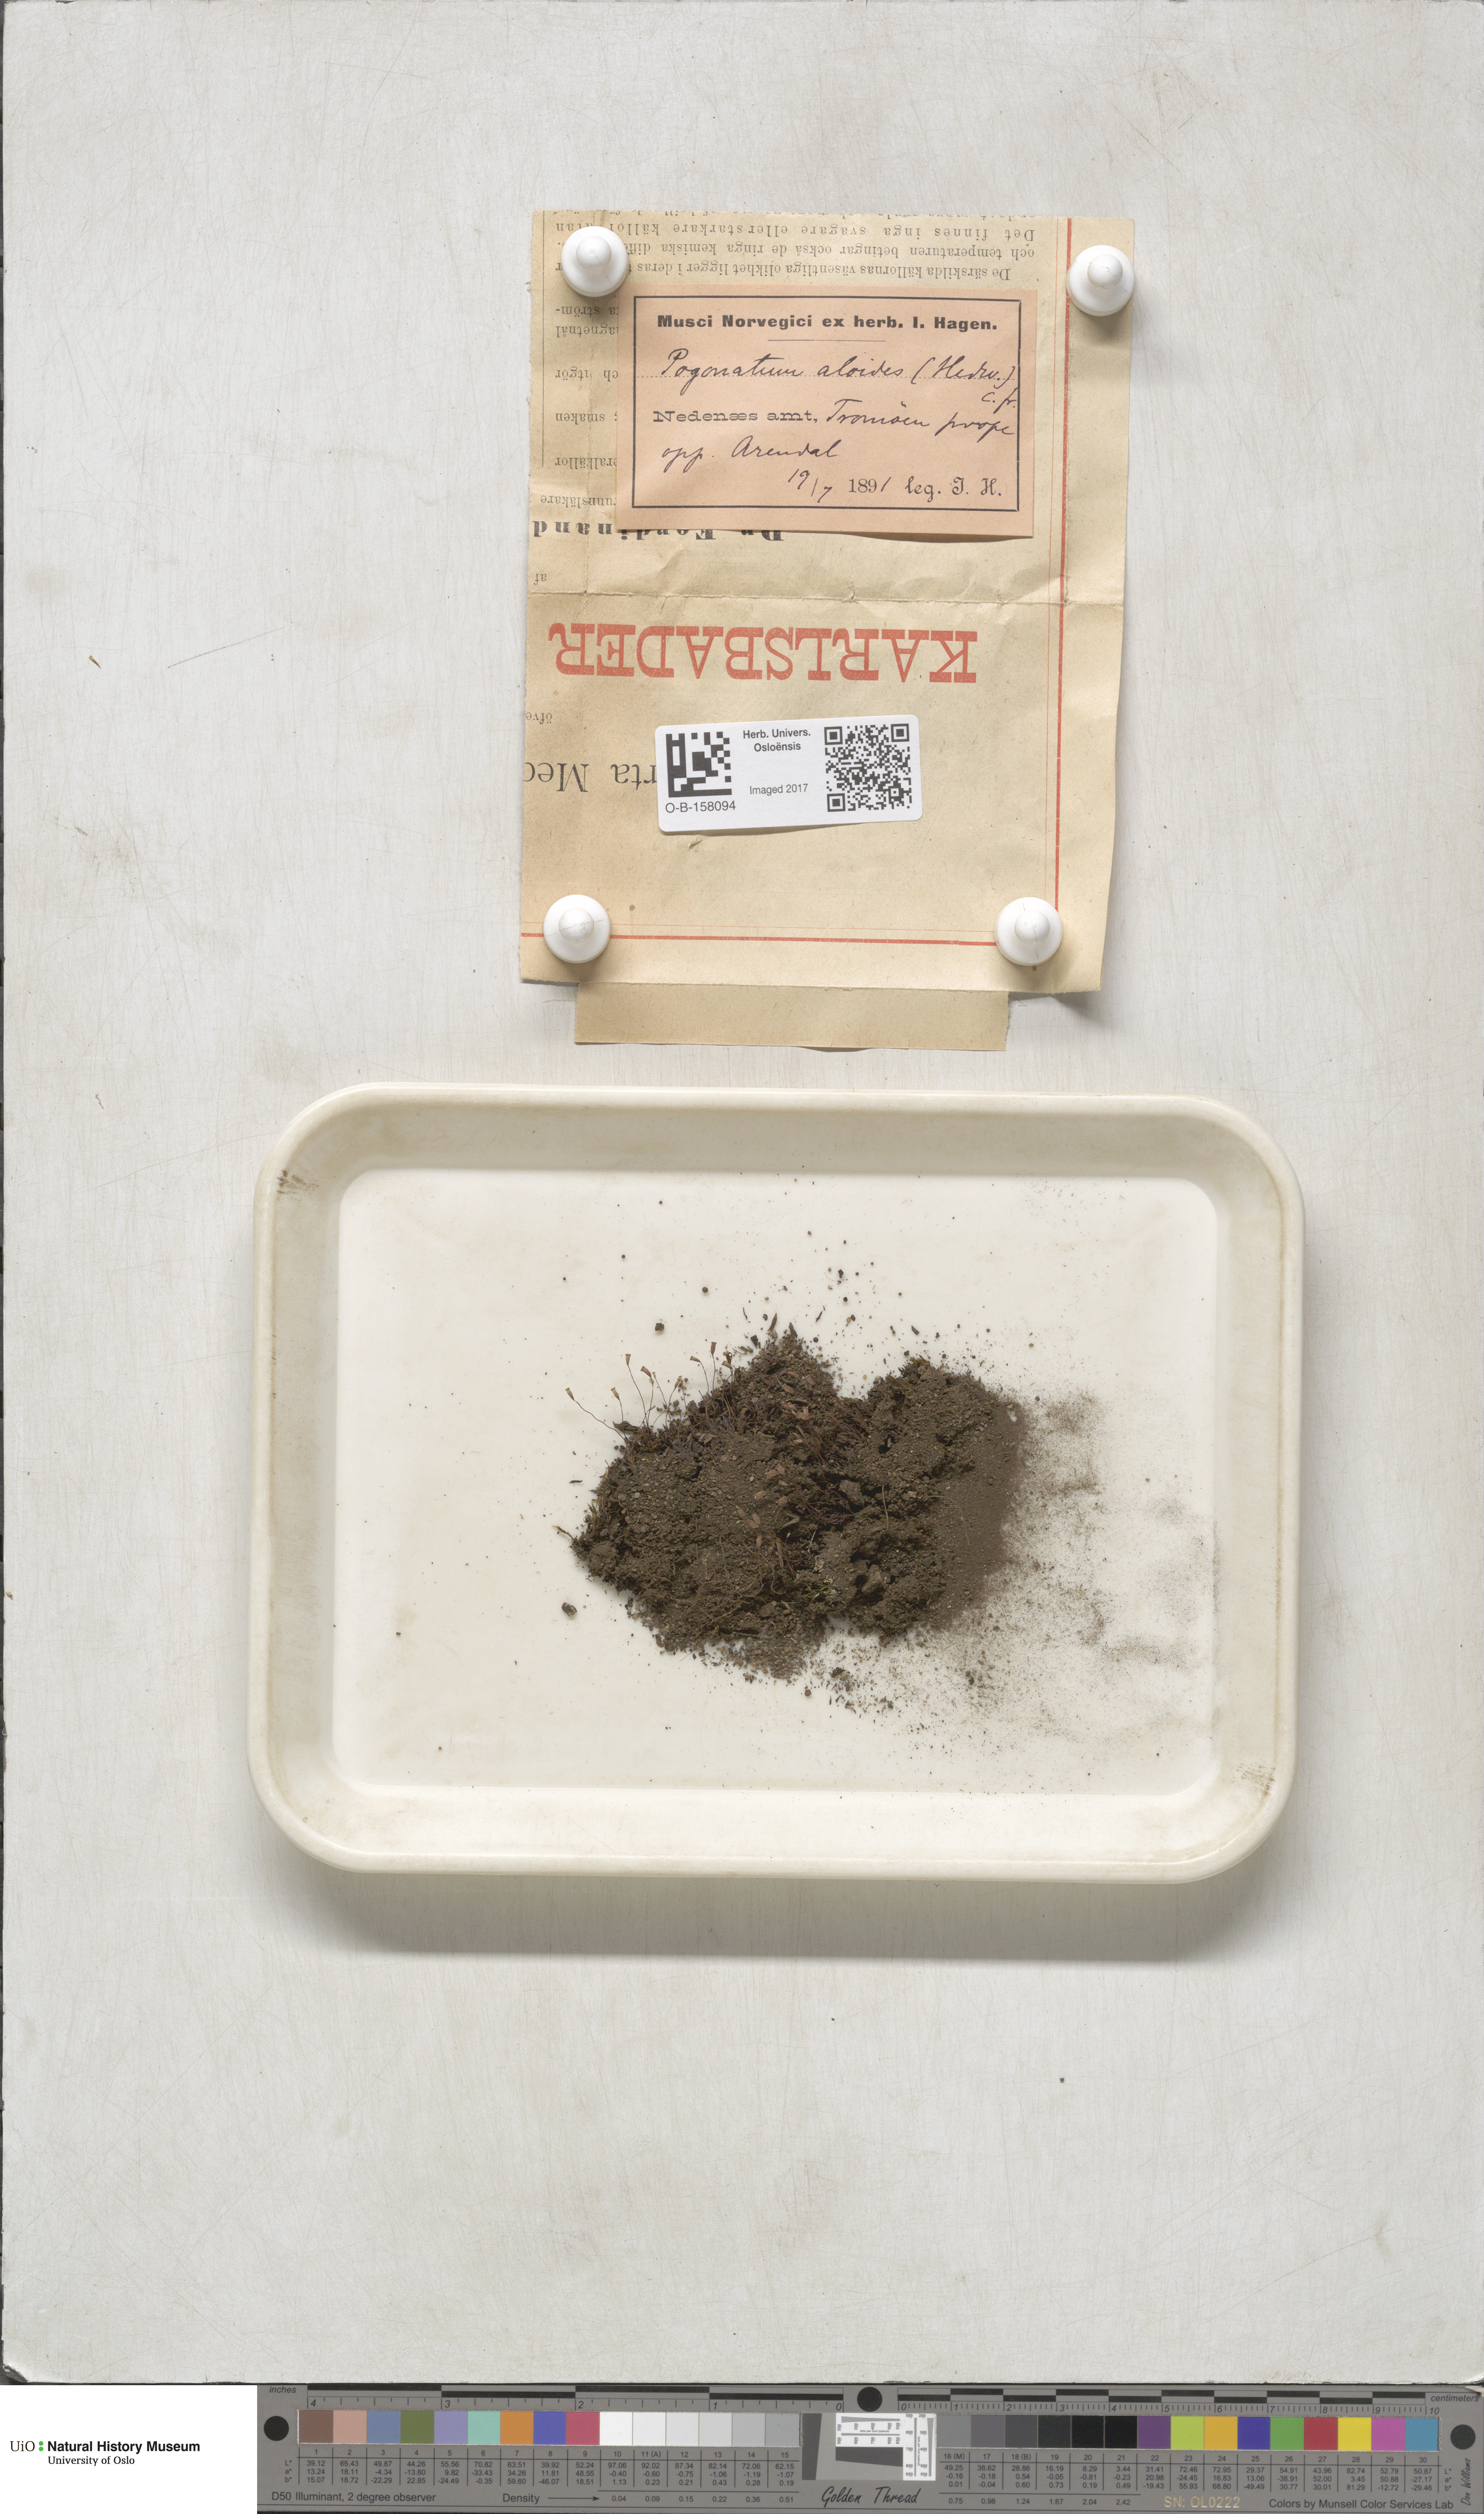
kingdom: Plantae
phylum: Bryophyta
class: Polytrichopsida
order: Polytrichales
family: Polytrichaceae
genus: Pogonatum
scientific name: Pogonatum aloides
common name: Aloe haircap
